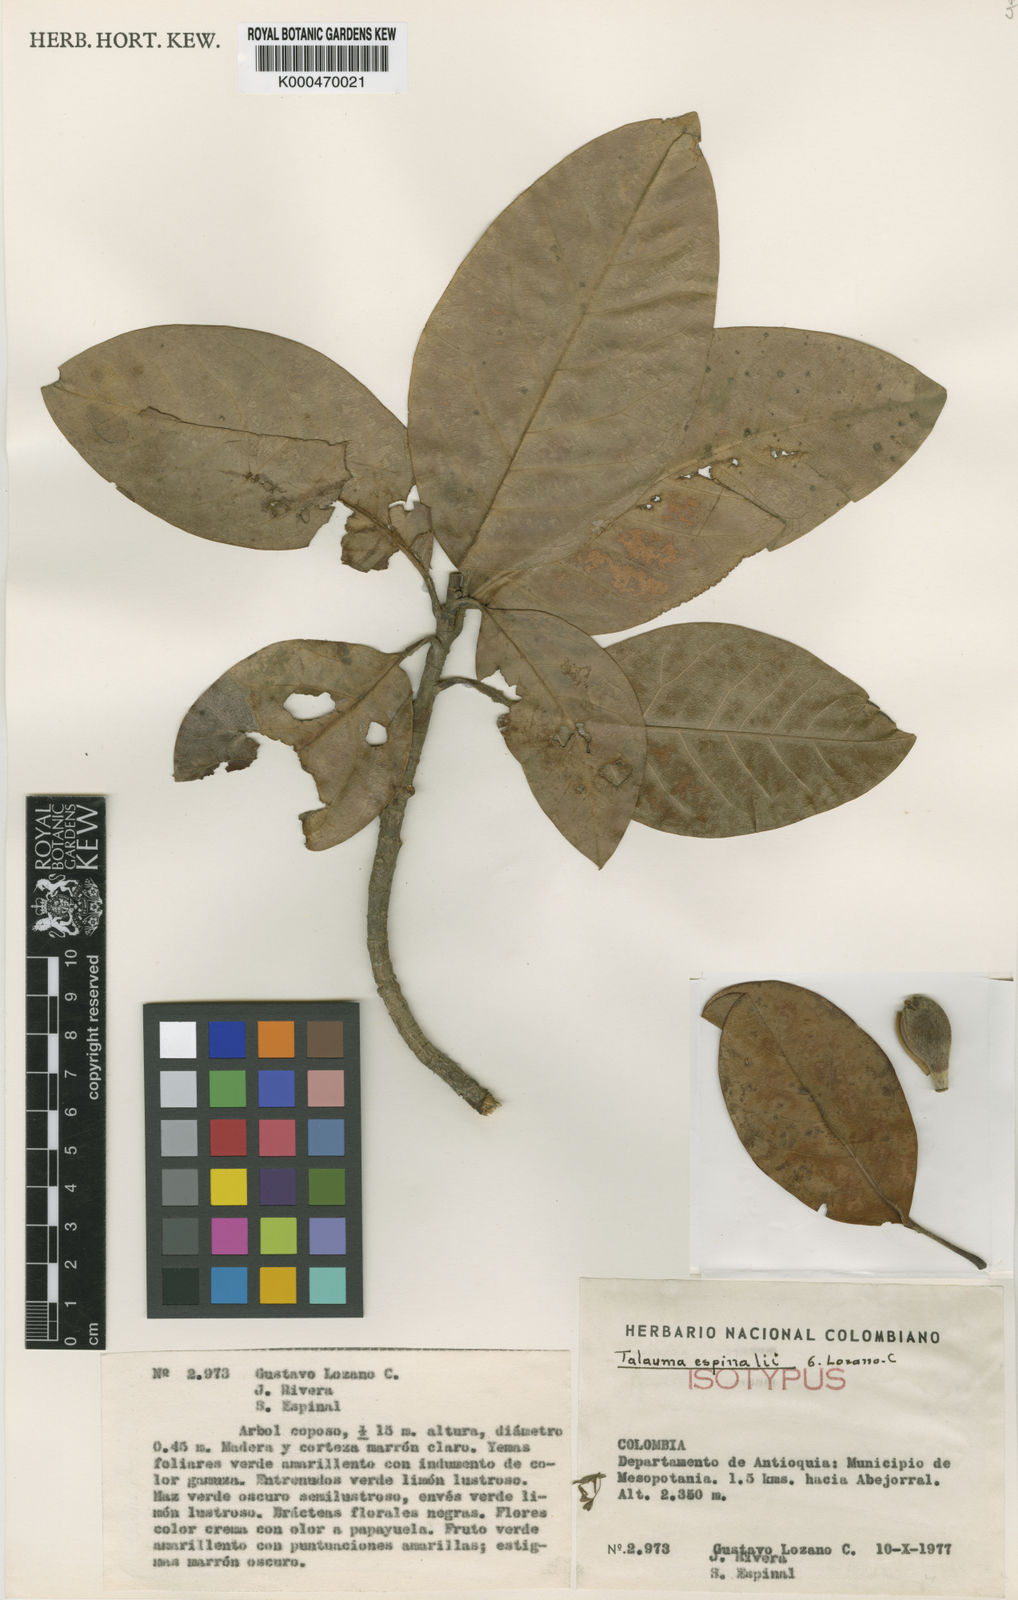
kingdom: Plantae
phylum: Tracheophyta
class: Magnoliopsida
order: Magnoliales
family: Magnoliaceae
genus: Magnolia
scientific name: Magnolia espinalii
